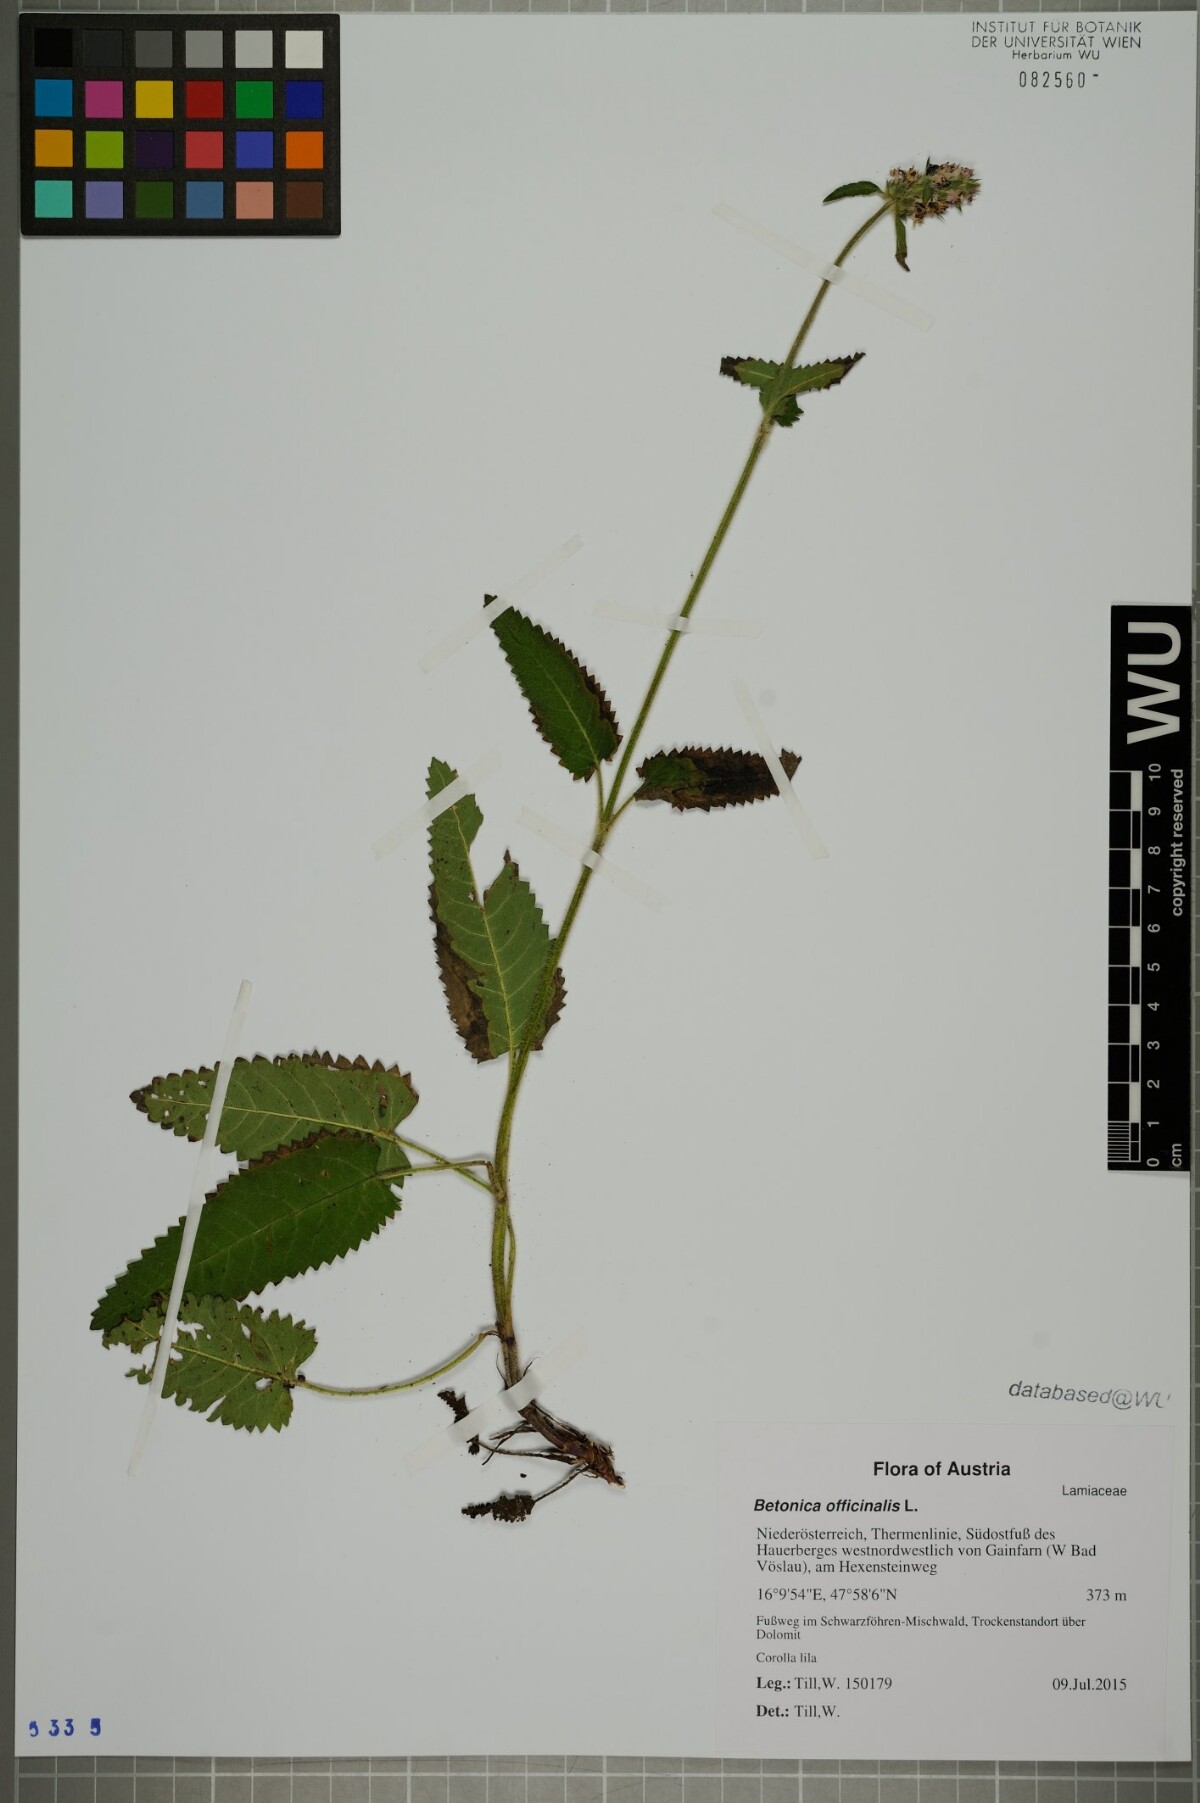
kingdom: Plantae
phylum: Tracheophyta
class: Magnoliopsida
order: Lamiales
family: Lamiaceae
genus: Betonica
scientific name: Betonica officinalis
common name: Bishop's-wort
